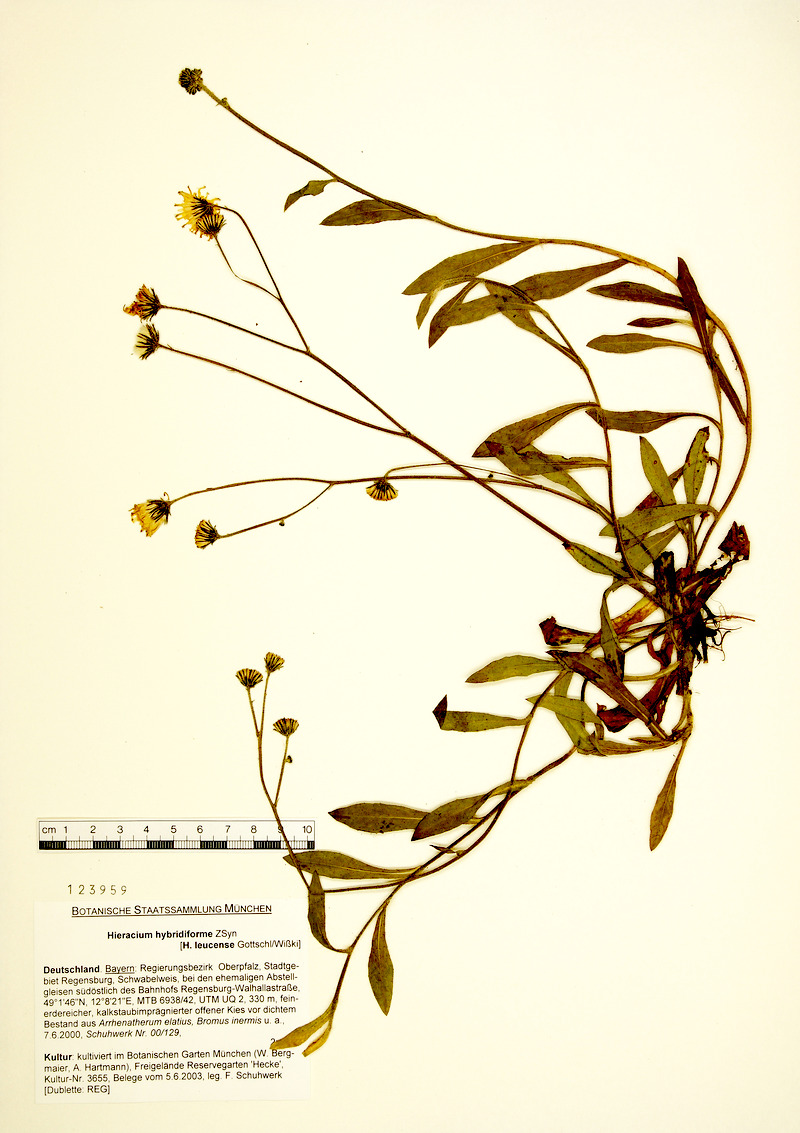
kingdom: Plantae
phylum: Tracheophyta
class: Magnoliopsida
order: Asterales
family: Asteraceae
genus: Pilosella
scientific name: Pilosella promeces
